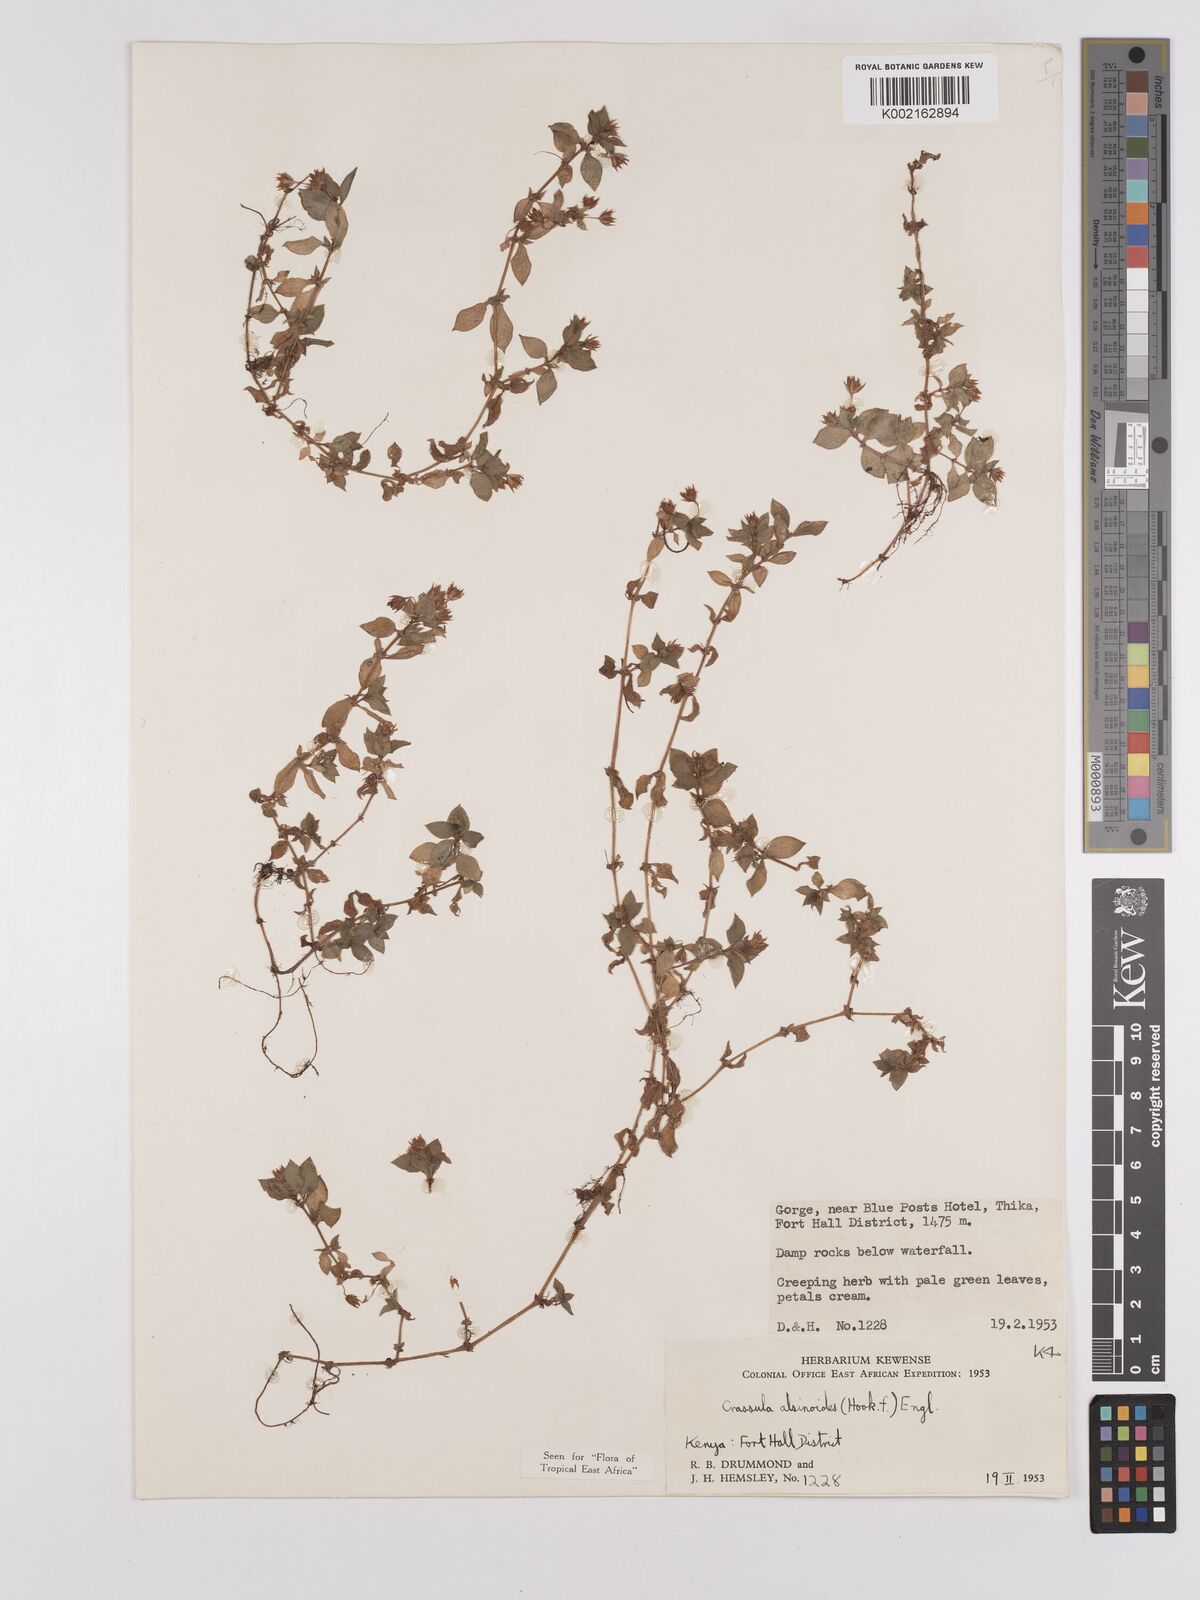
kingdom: Plantae
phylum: Tracheophyta
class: Magnoliopsida
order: Saxifragales
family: Crassulaceae
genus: Crassula
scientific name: Crassula alsinoides
